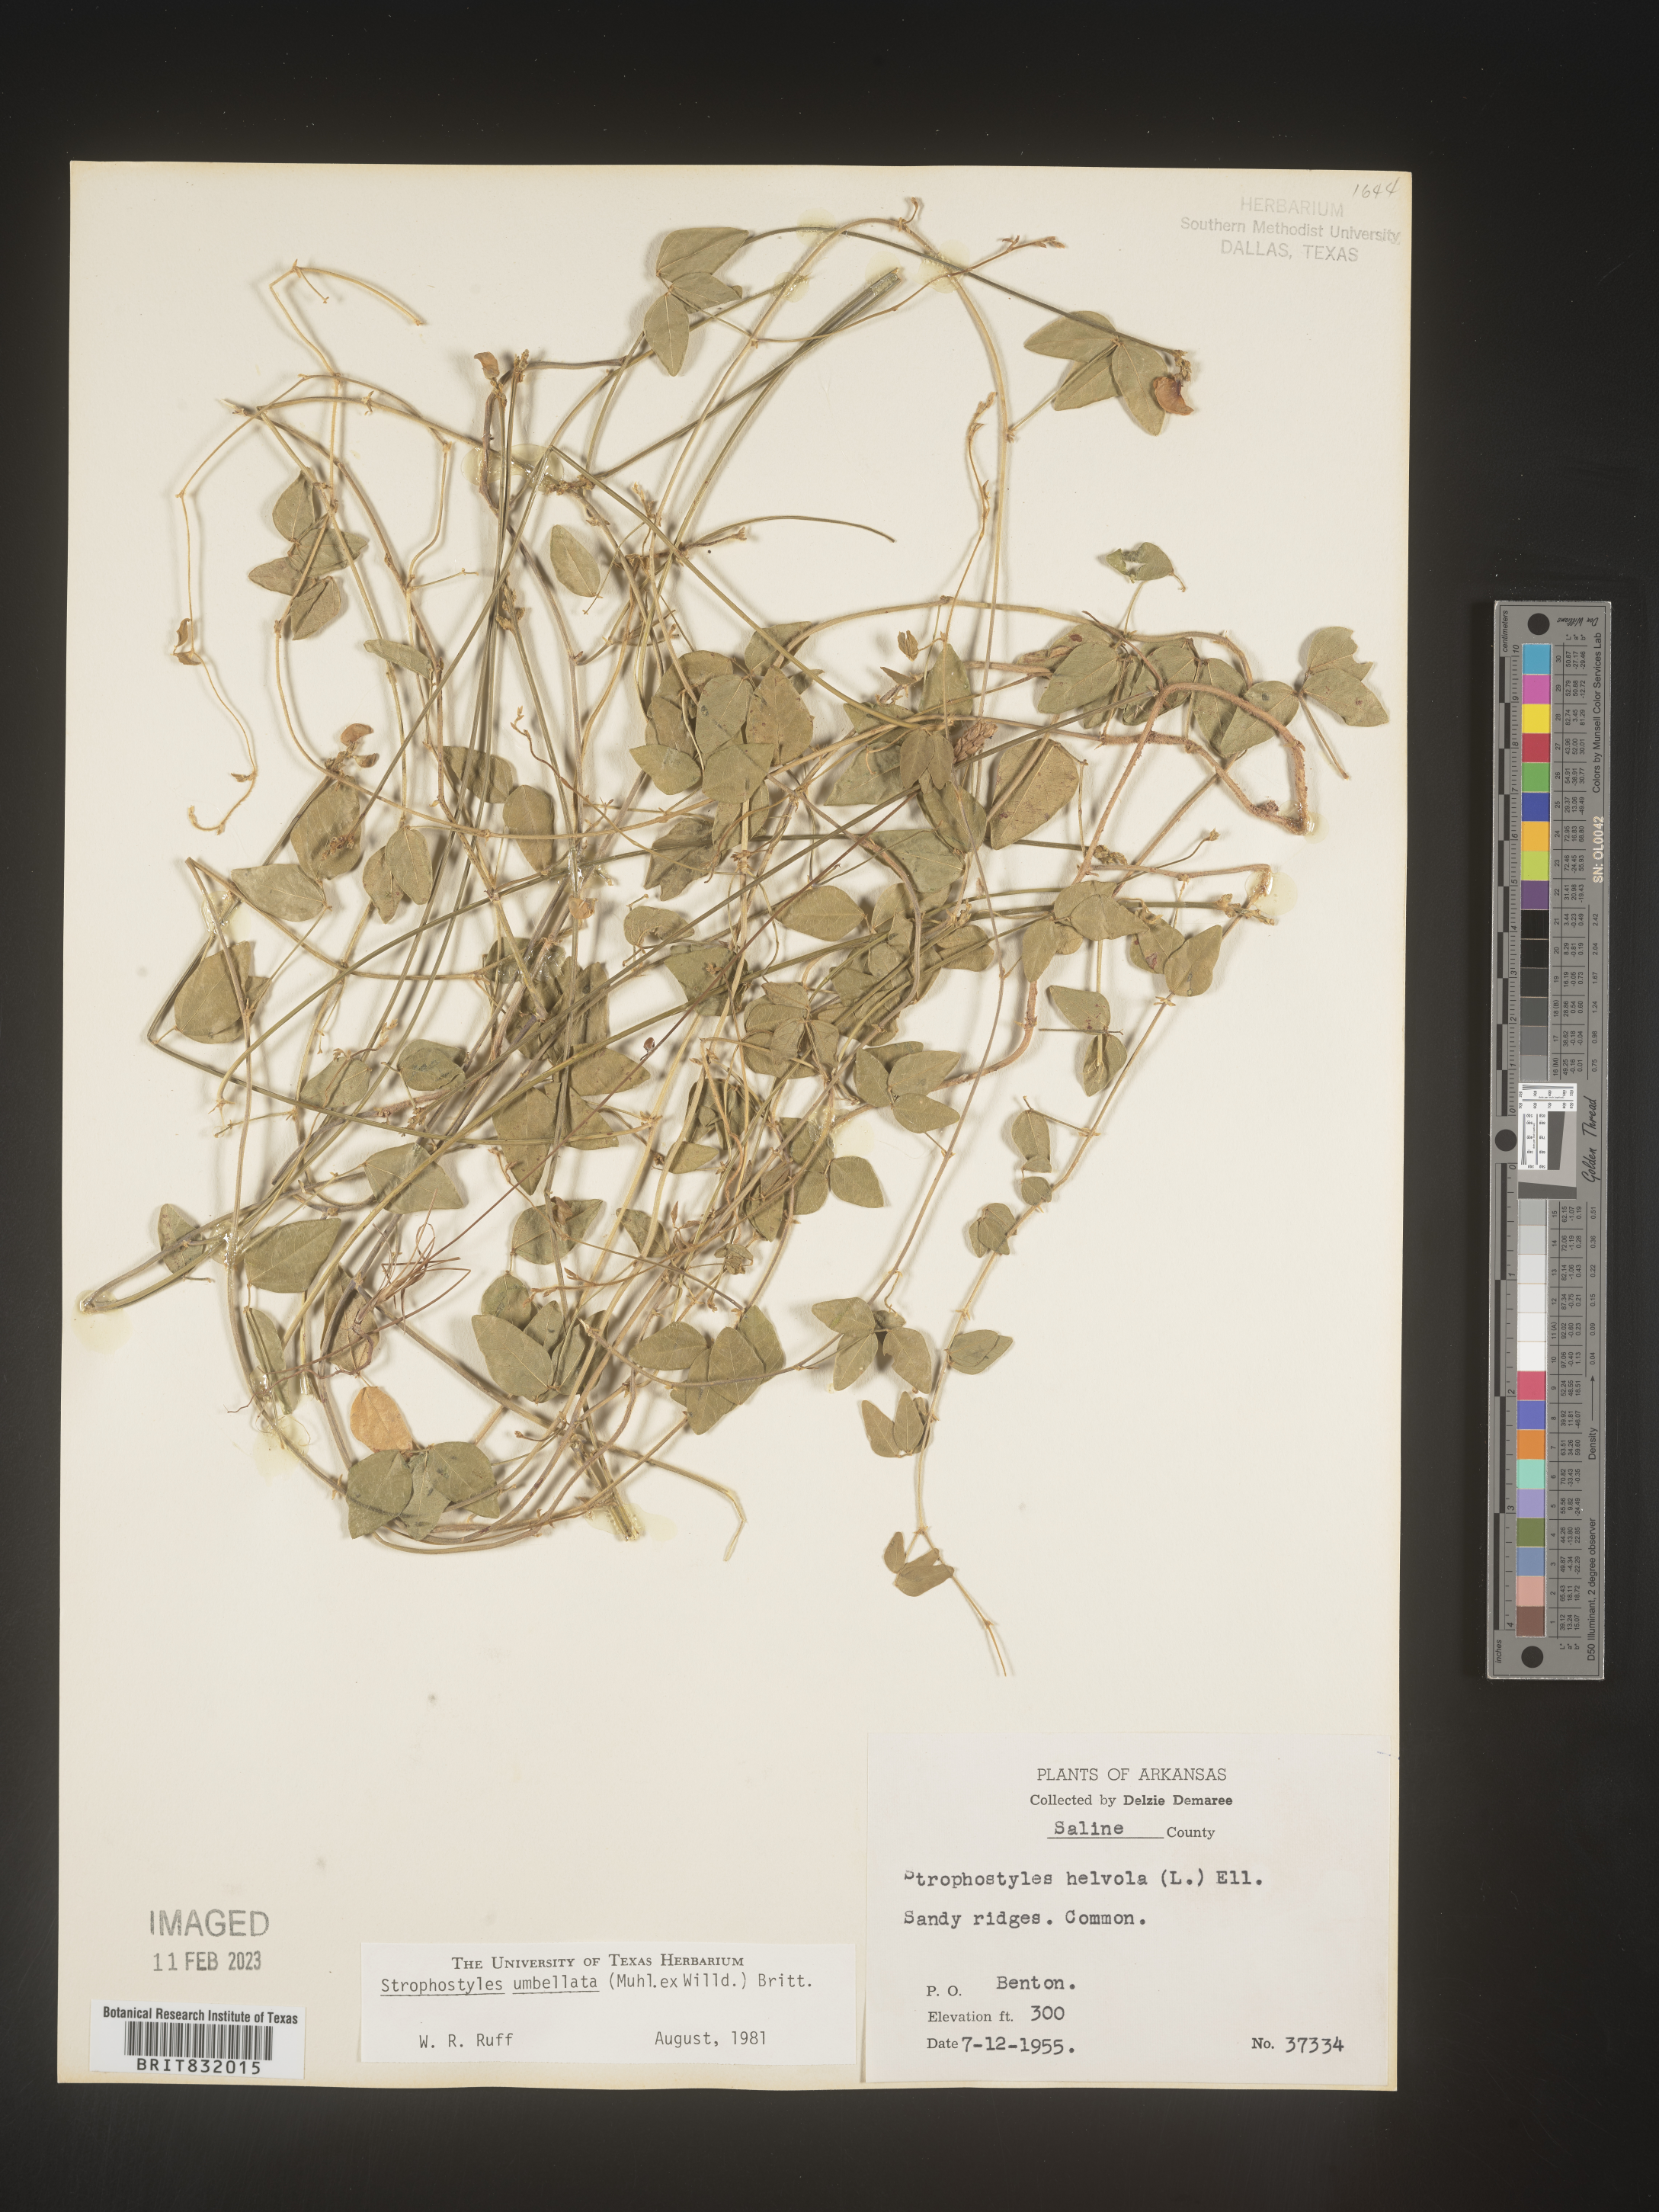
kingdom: Plantae
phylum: Tracheophyta
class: Magnoliopsida
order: Fabales
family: Fabaceae
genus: Strophostyles
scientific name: Strophostyles umbellata
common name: Perennial wild bean
